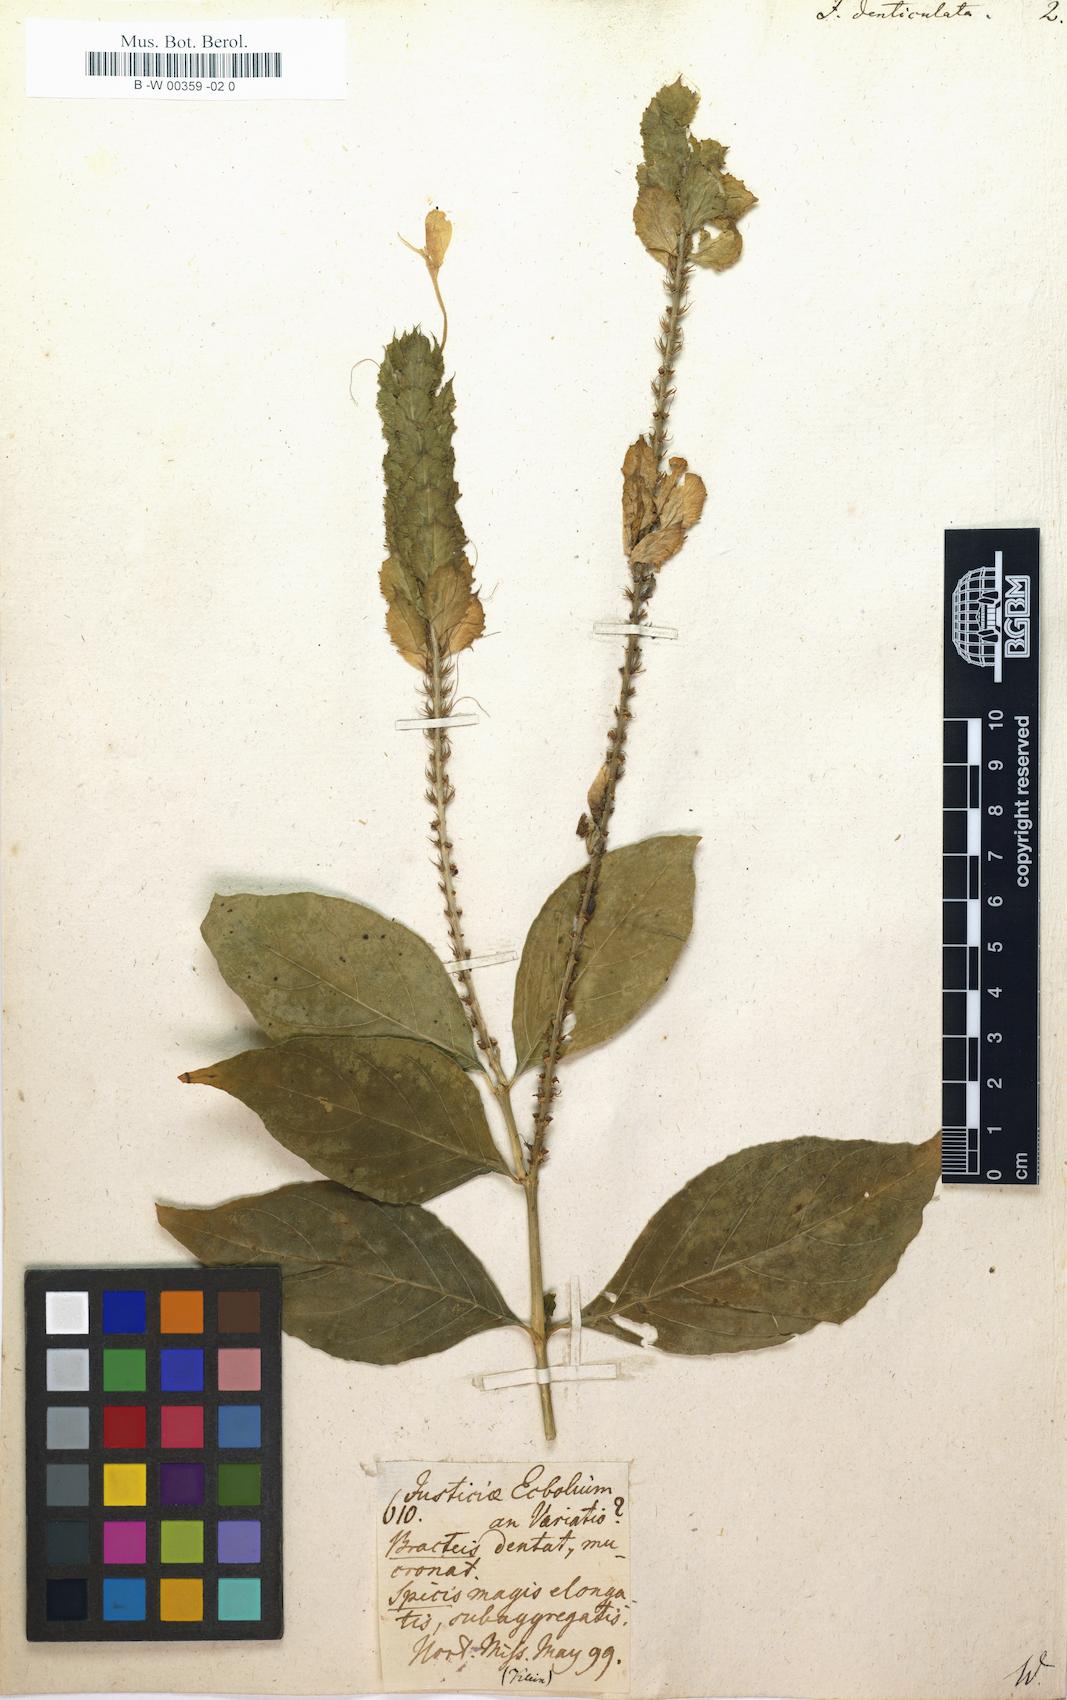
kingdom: Plantae
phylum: Tracheophyta
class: Magnoliopsida
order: Lamiales
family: Acanthaceae
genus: Ecbolium
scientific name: Ecbolium ligustrinum
